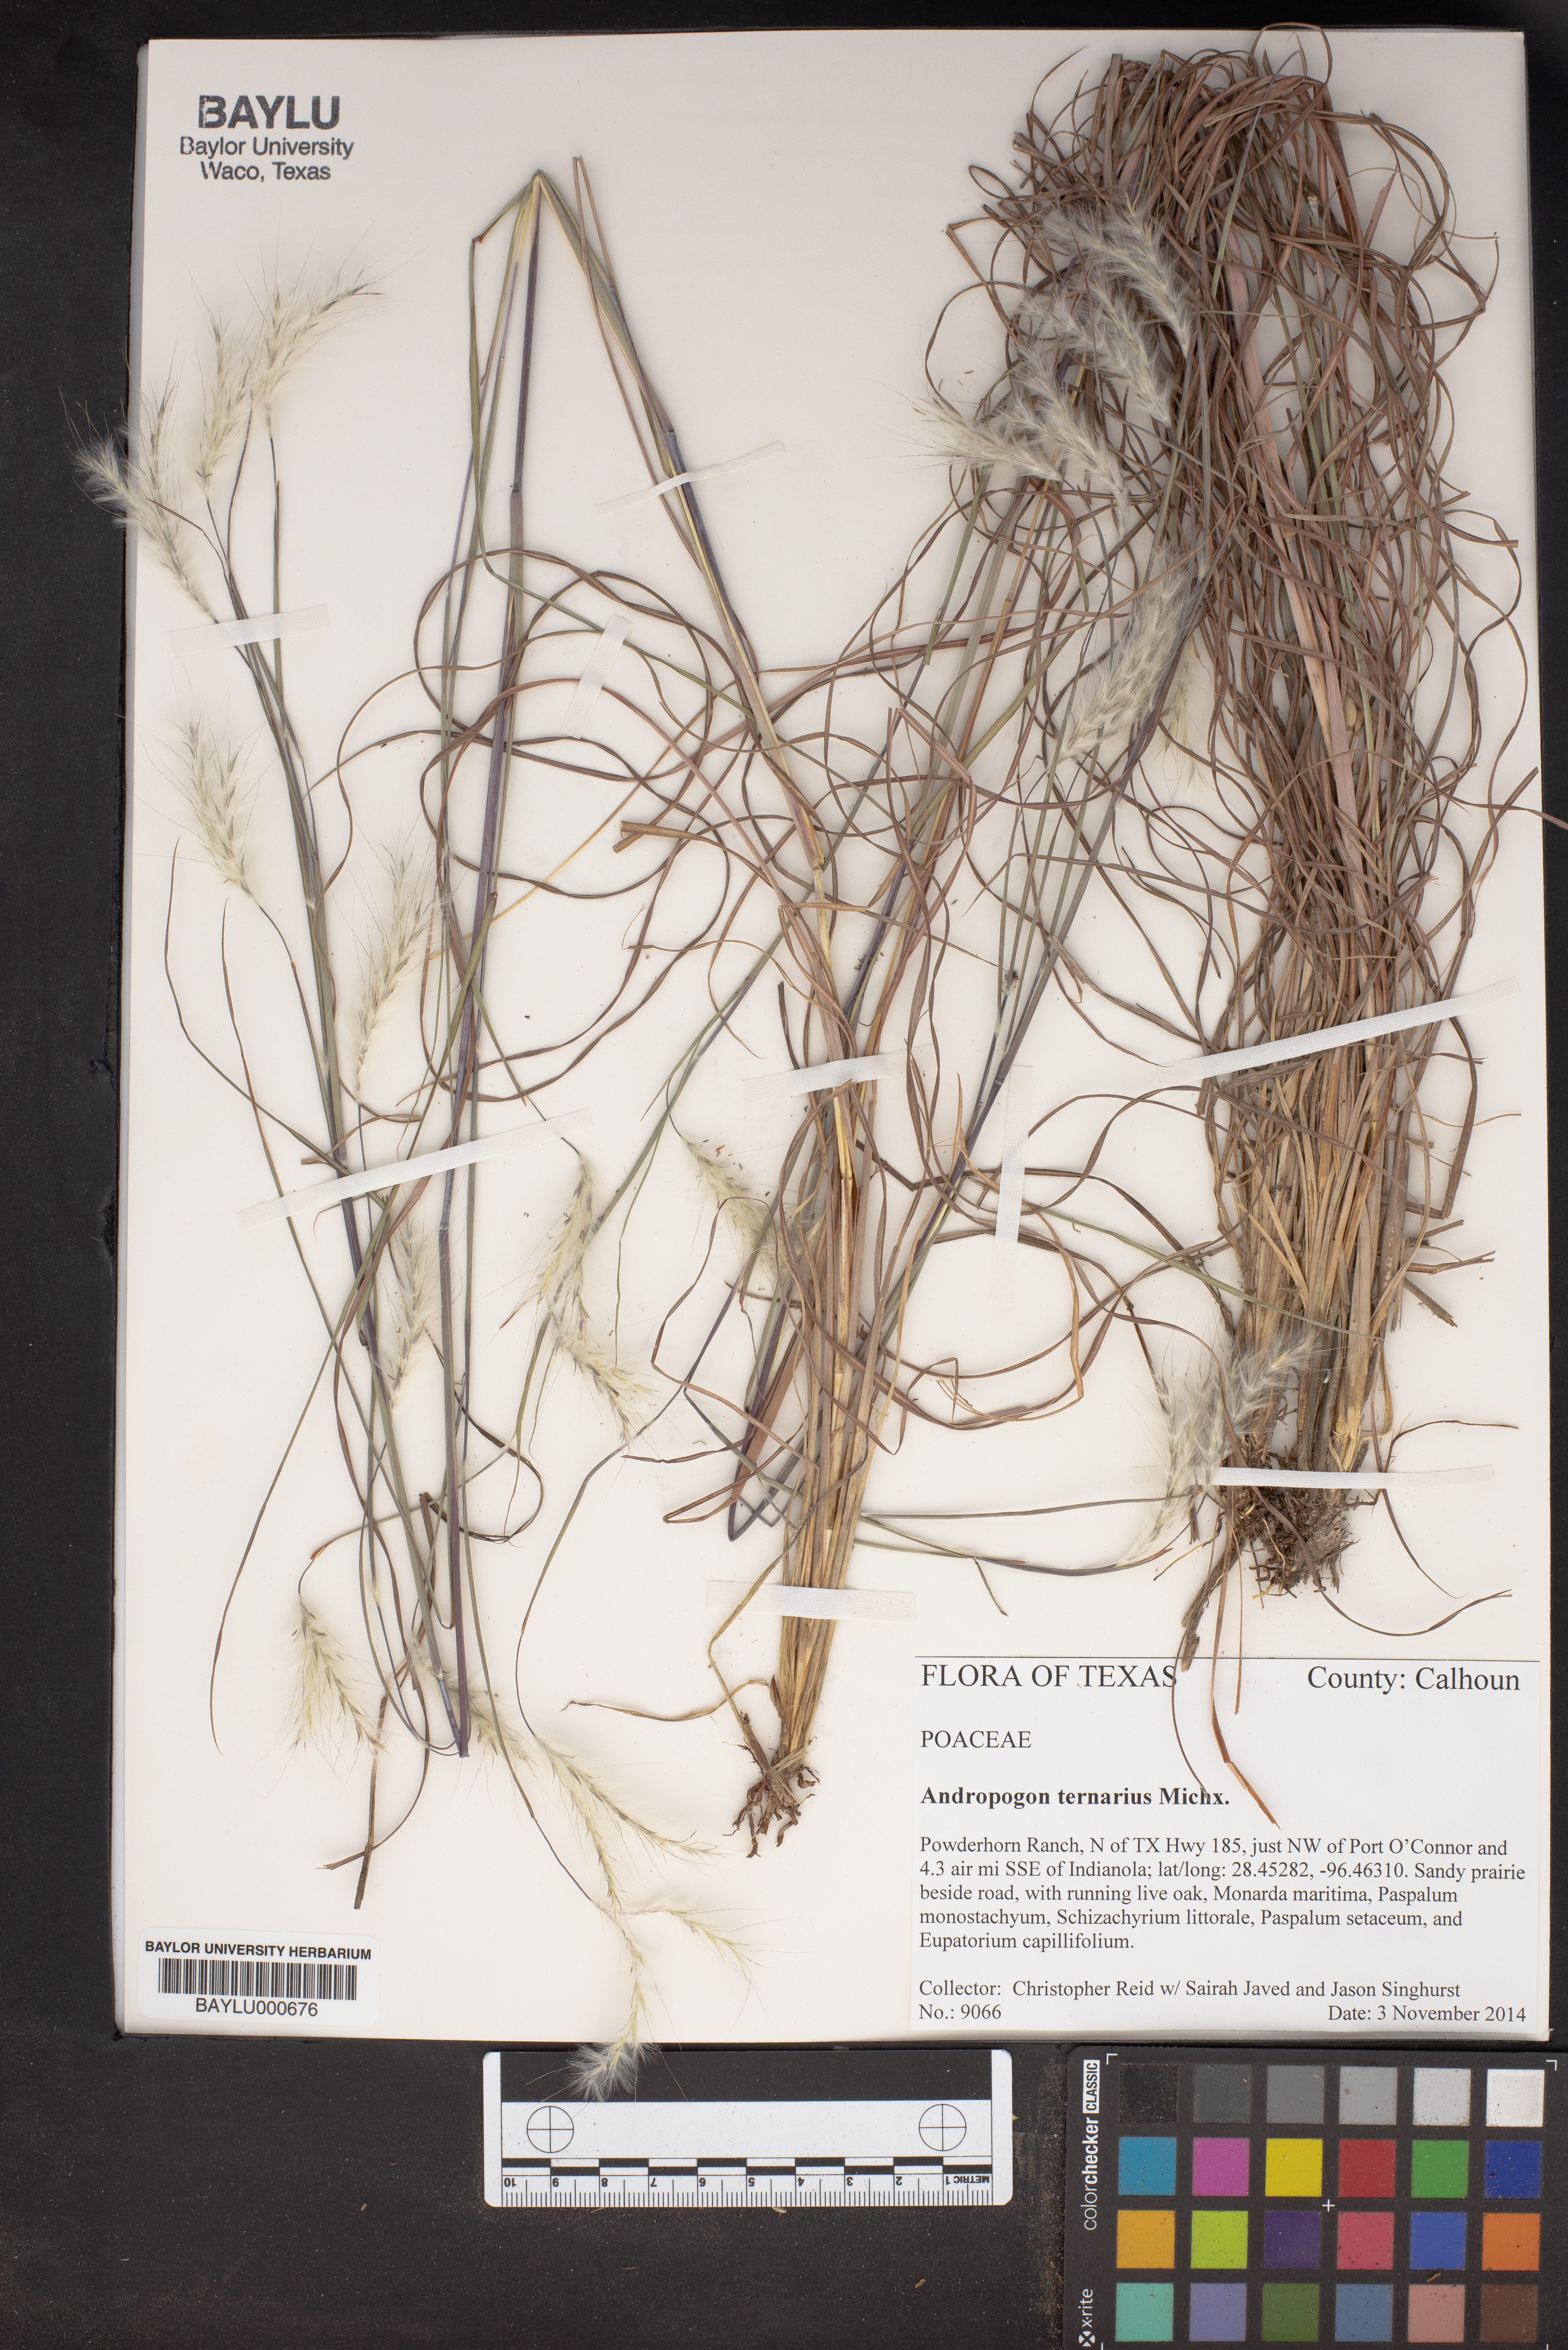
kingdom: Plantae
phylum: Tracheophyta
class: Liliopsida
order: Poales
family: Poaceae
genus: Andropogon
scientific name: Andropogon ternarius
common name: Split bluestem
